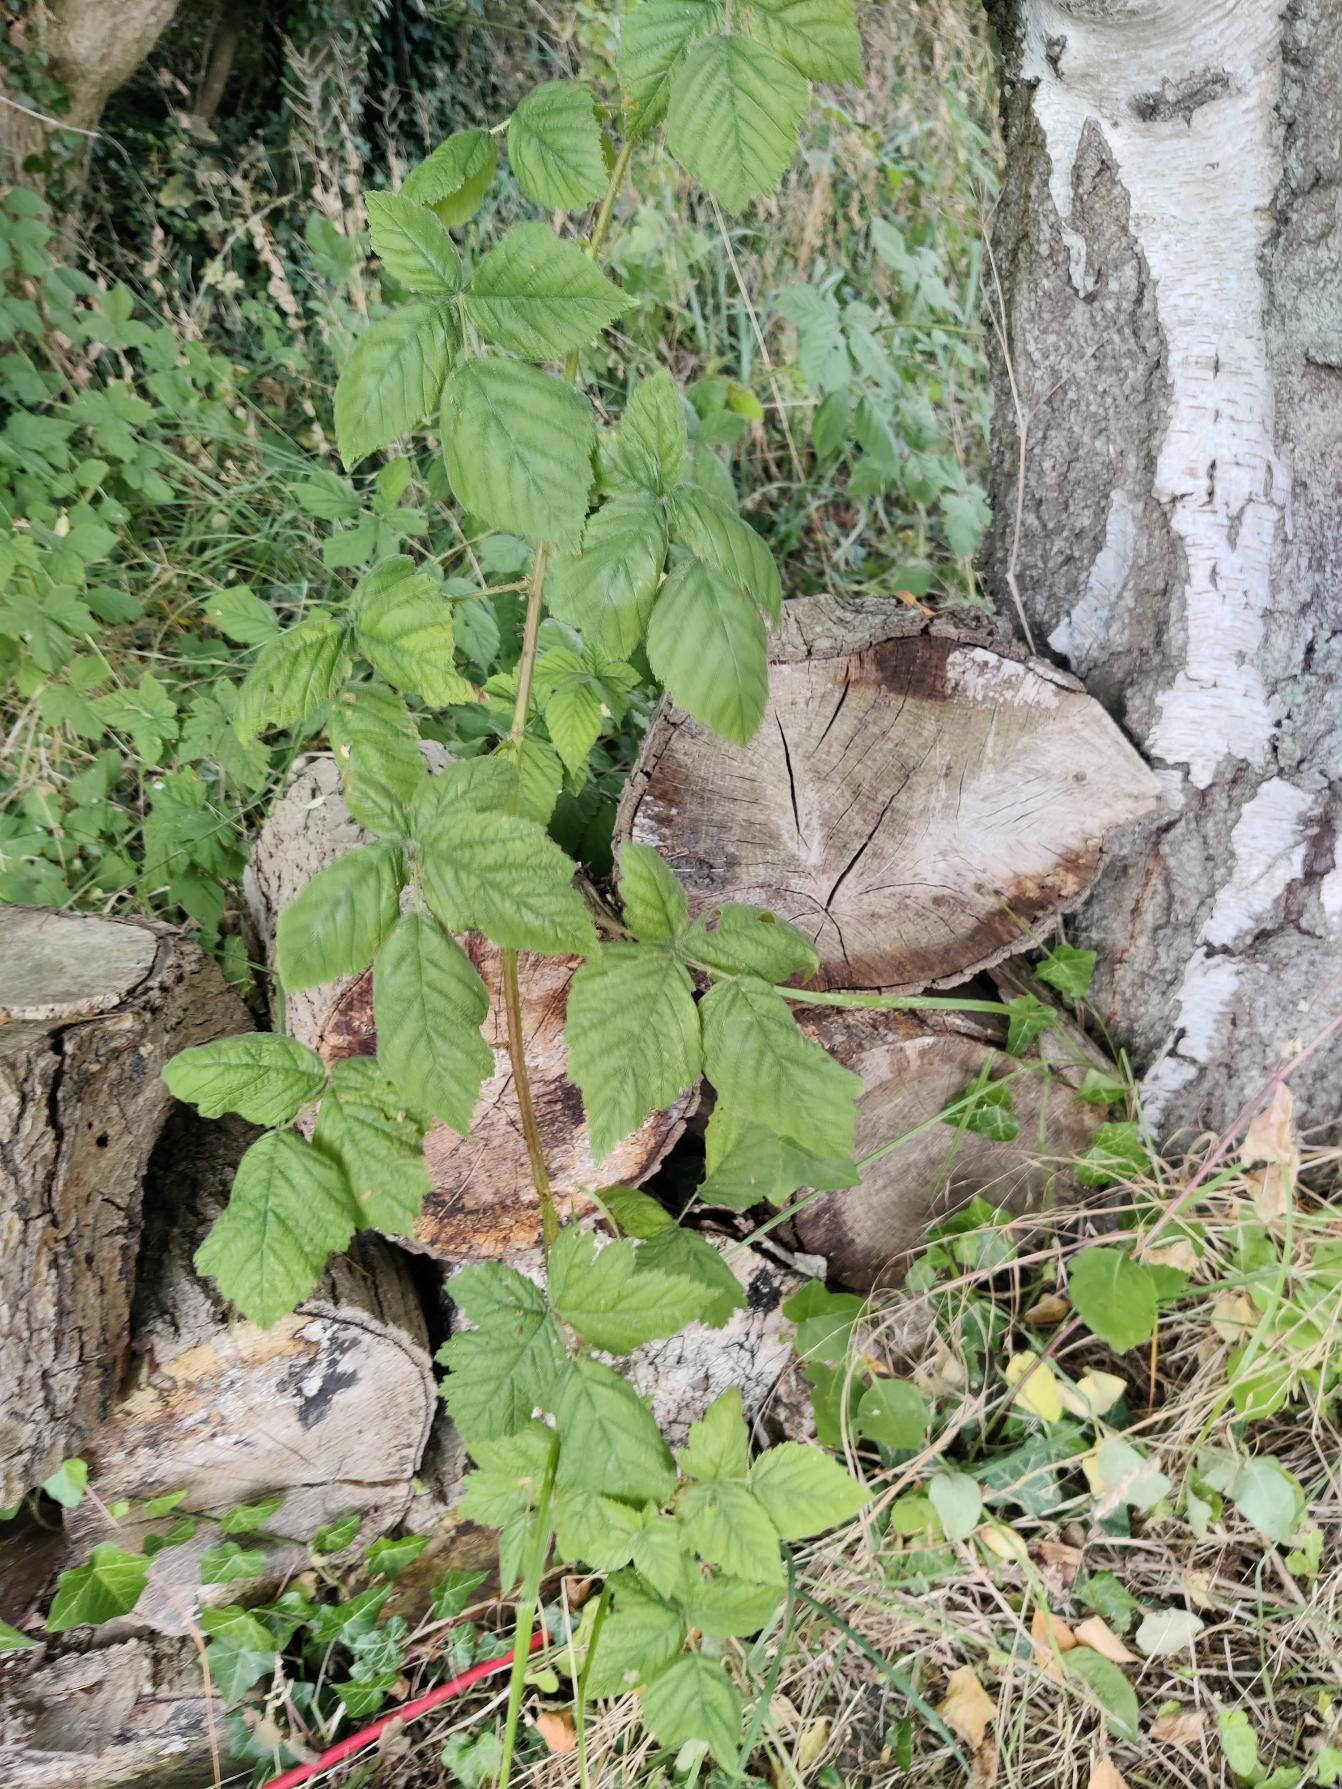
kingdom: Plantae
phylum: Tracheophyta
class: Magnoliopsida
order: Rosales
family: Rosaceae
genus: Rubus
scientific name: Rubus
